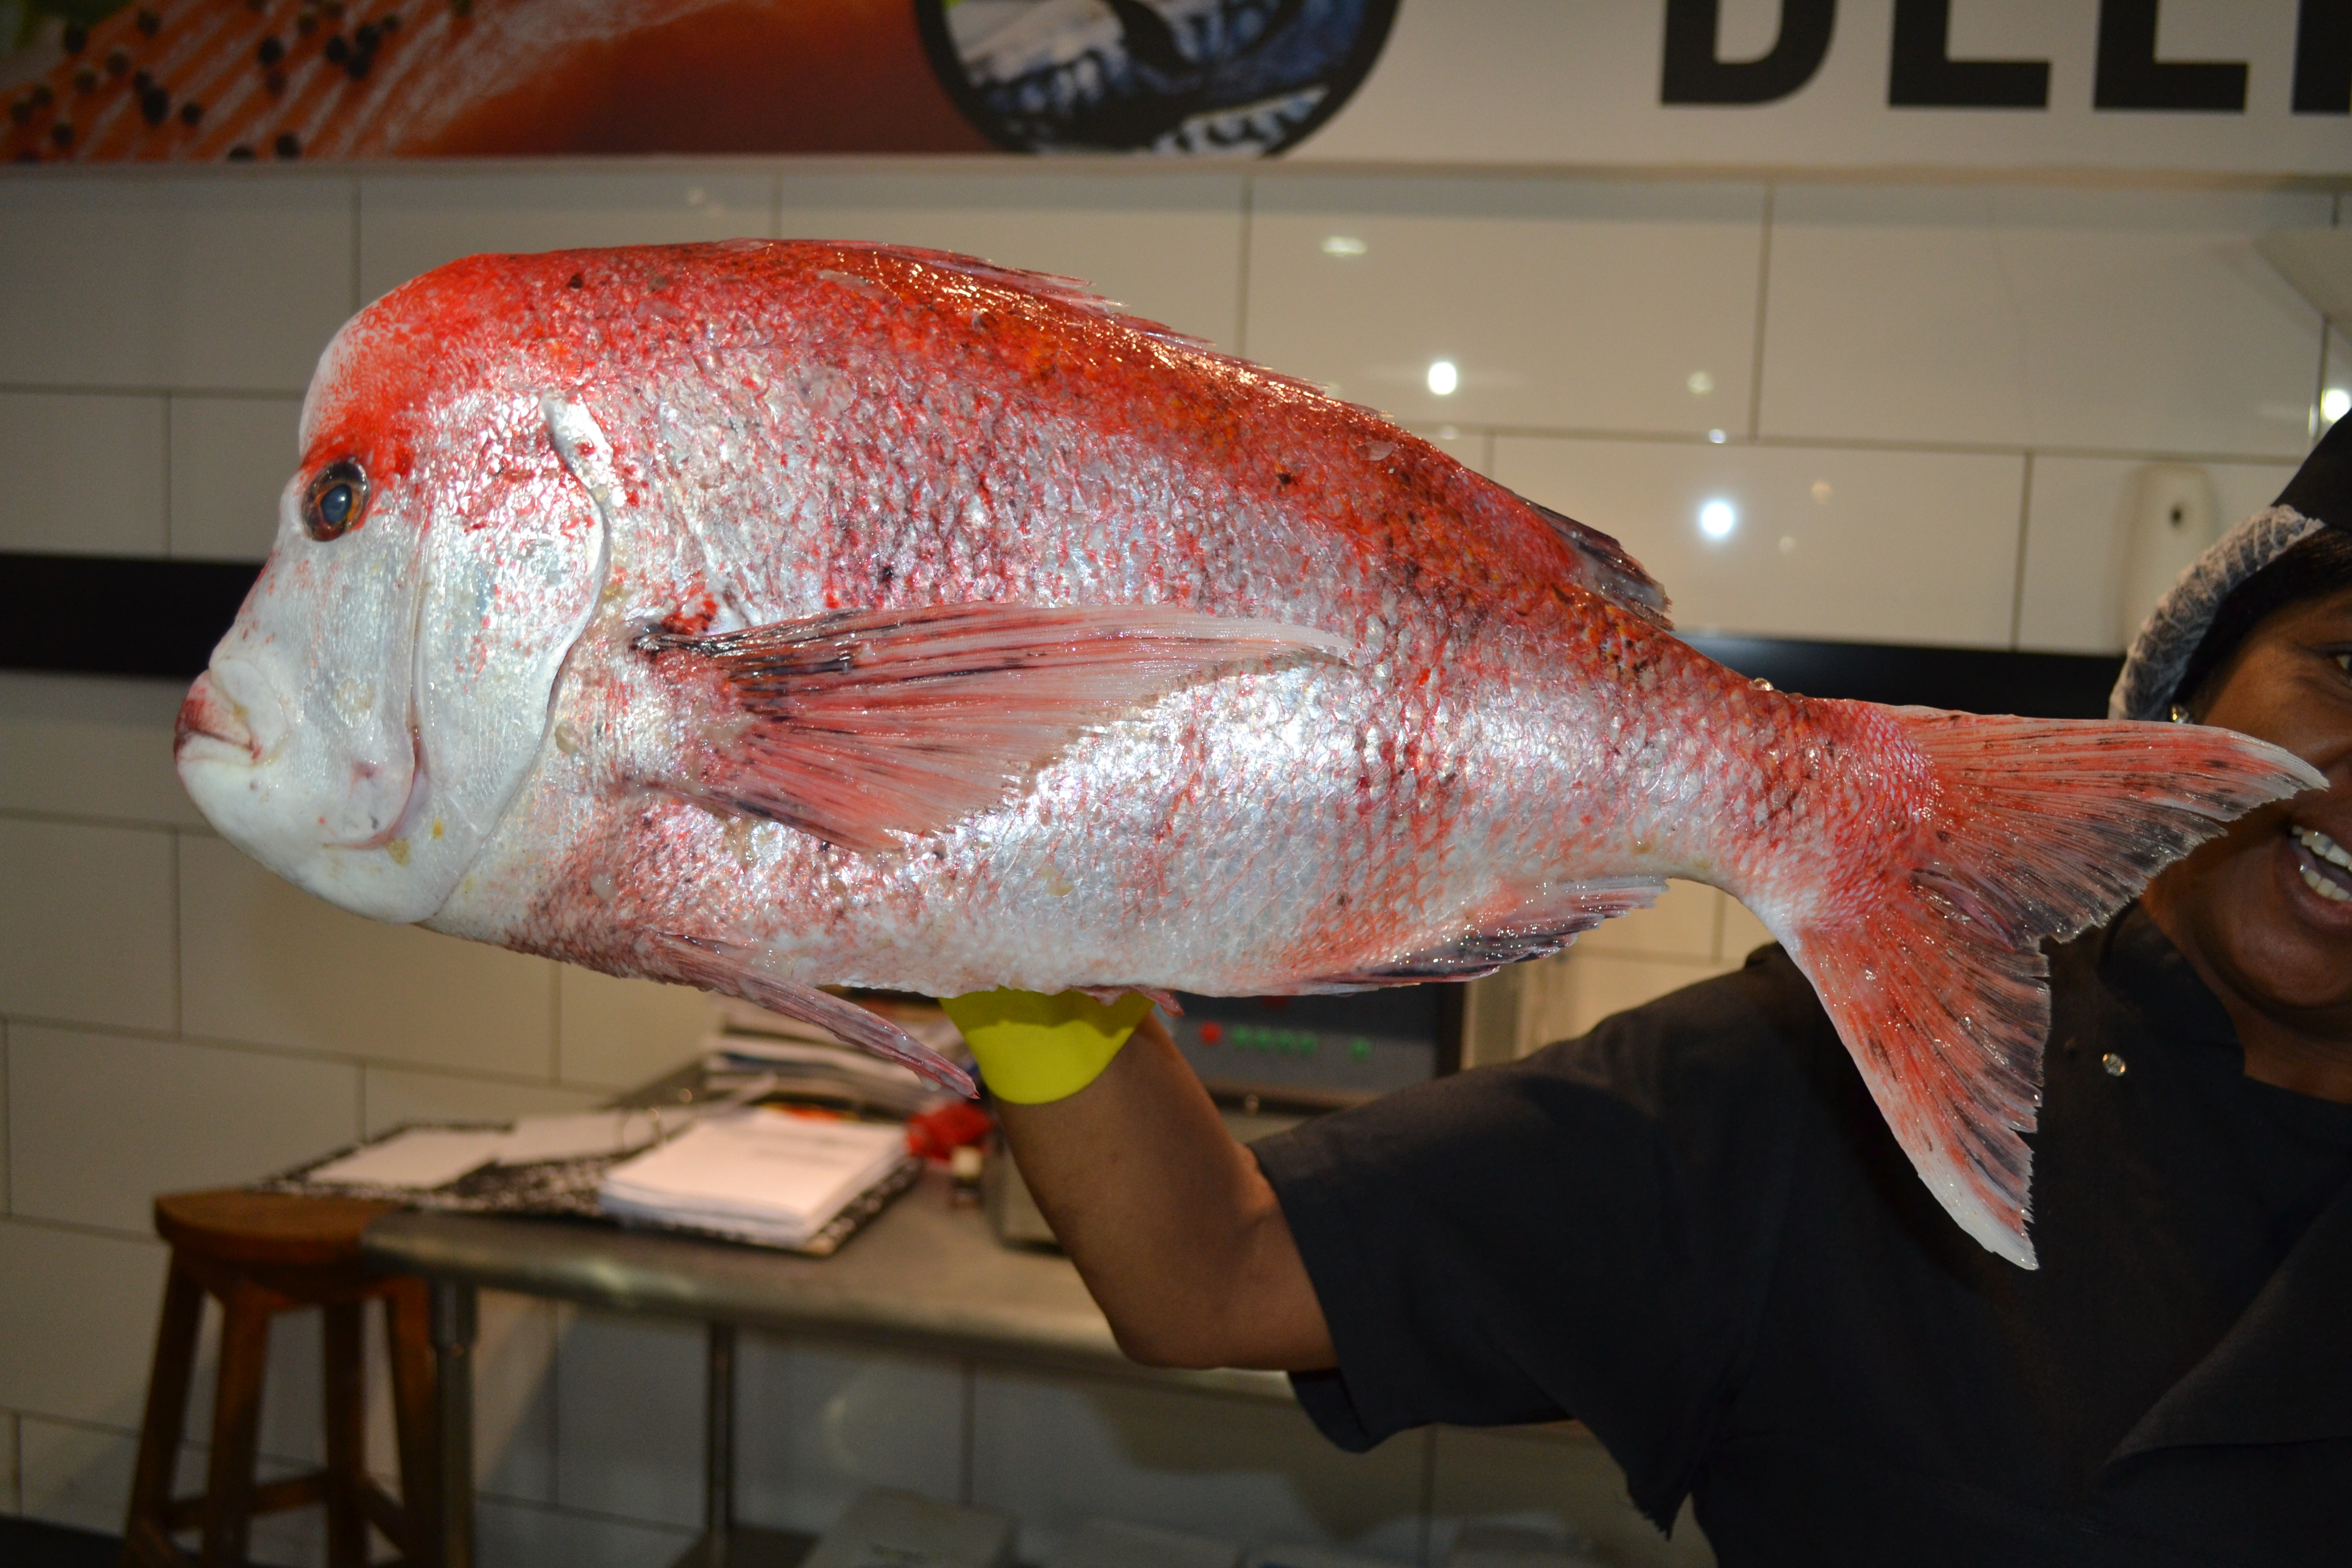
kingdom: Animalia
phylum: Chordata
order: Perciformes
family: Sparidae
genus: Chrysoblephus
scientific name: Chrysoblephus gibbiceps
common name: Red stumpnose
